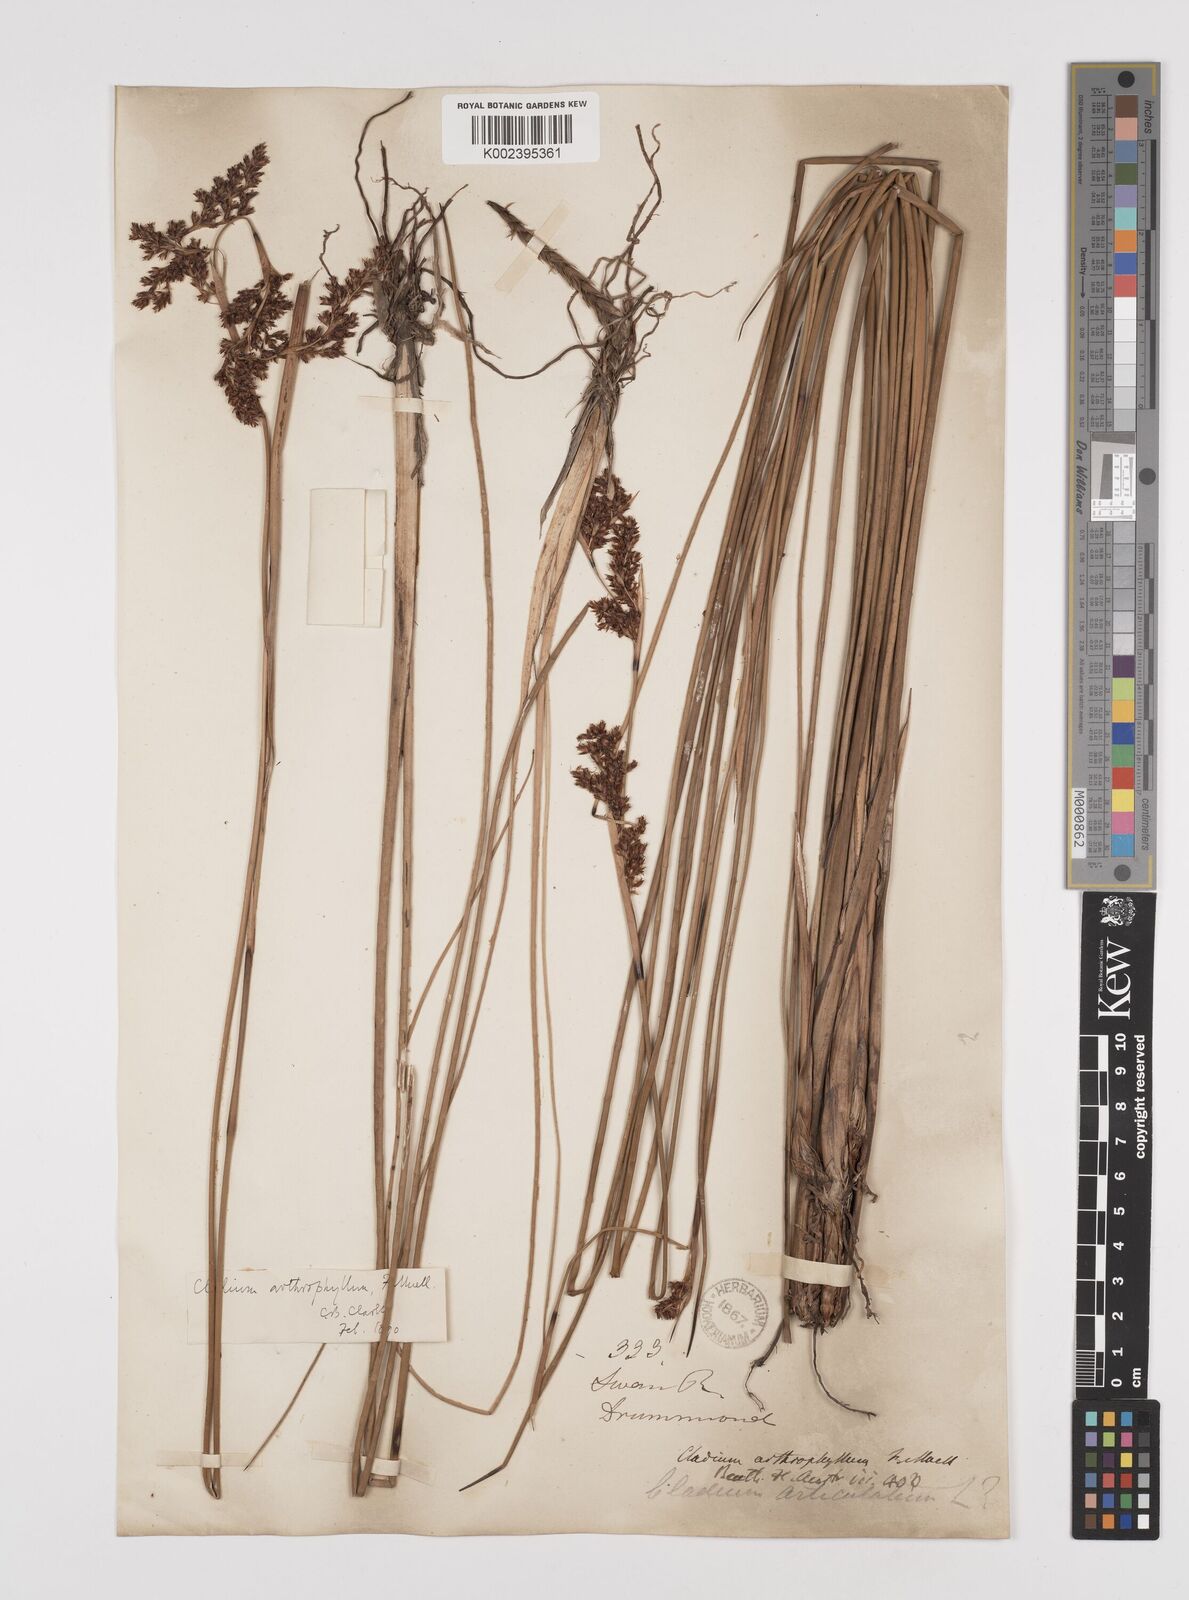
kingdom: Plantae
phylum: Tracheophyta
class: Liliopsida
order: Poales
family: Cyperaceae
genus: Machaerina
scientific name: Machaerina arthrophylla
